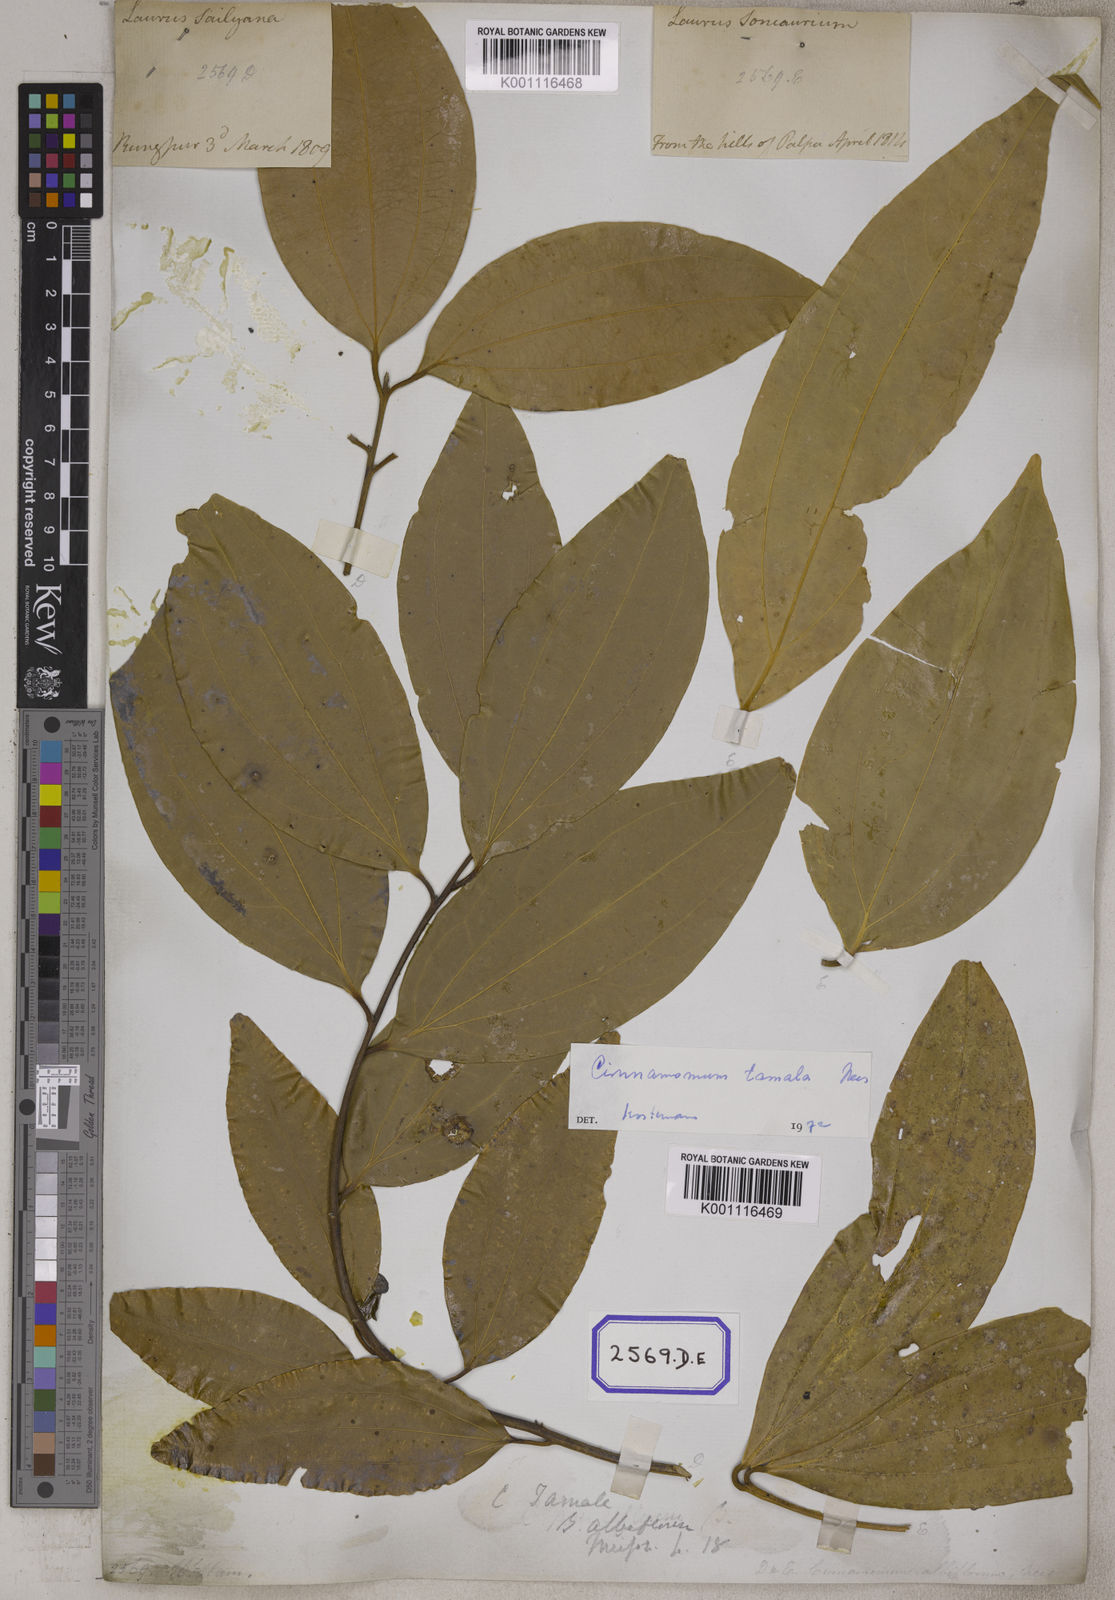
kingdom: Plantae
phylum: Tracheophyta
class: Magnoliopsida
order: Laurales
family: Lauraceae
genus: Cinnamomum
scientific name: Cinnamomum tamala
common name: Indian bay leaves
